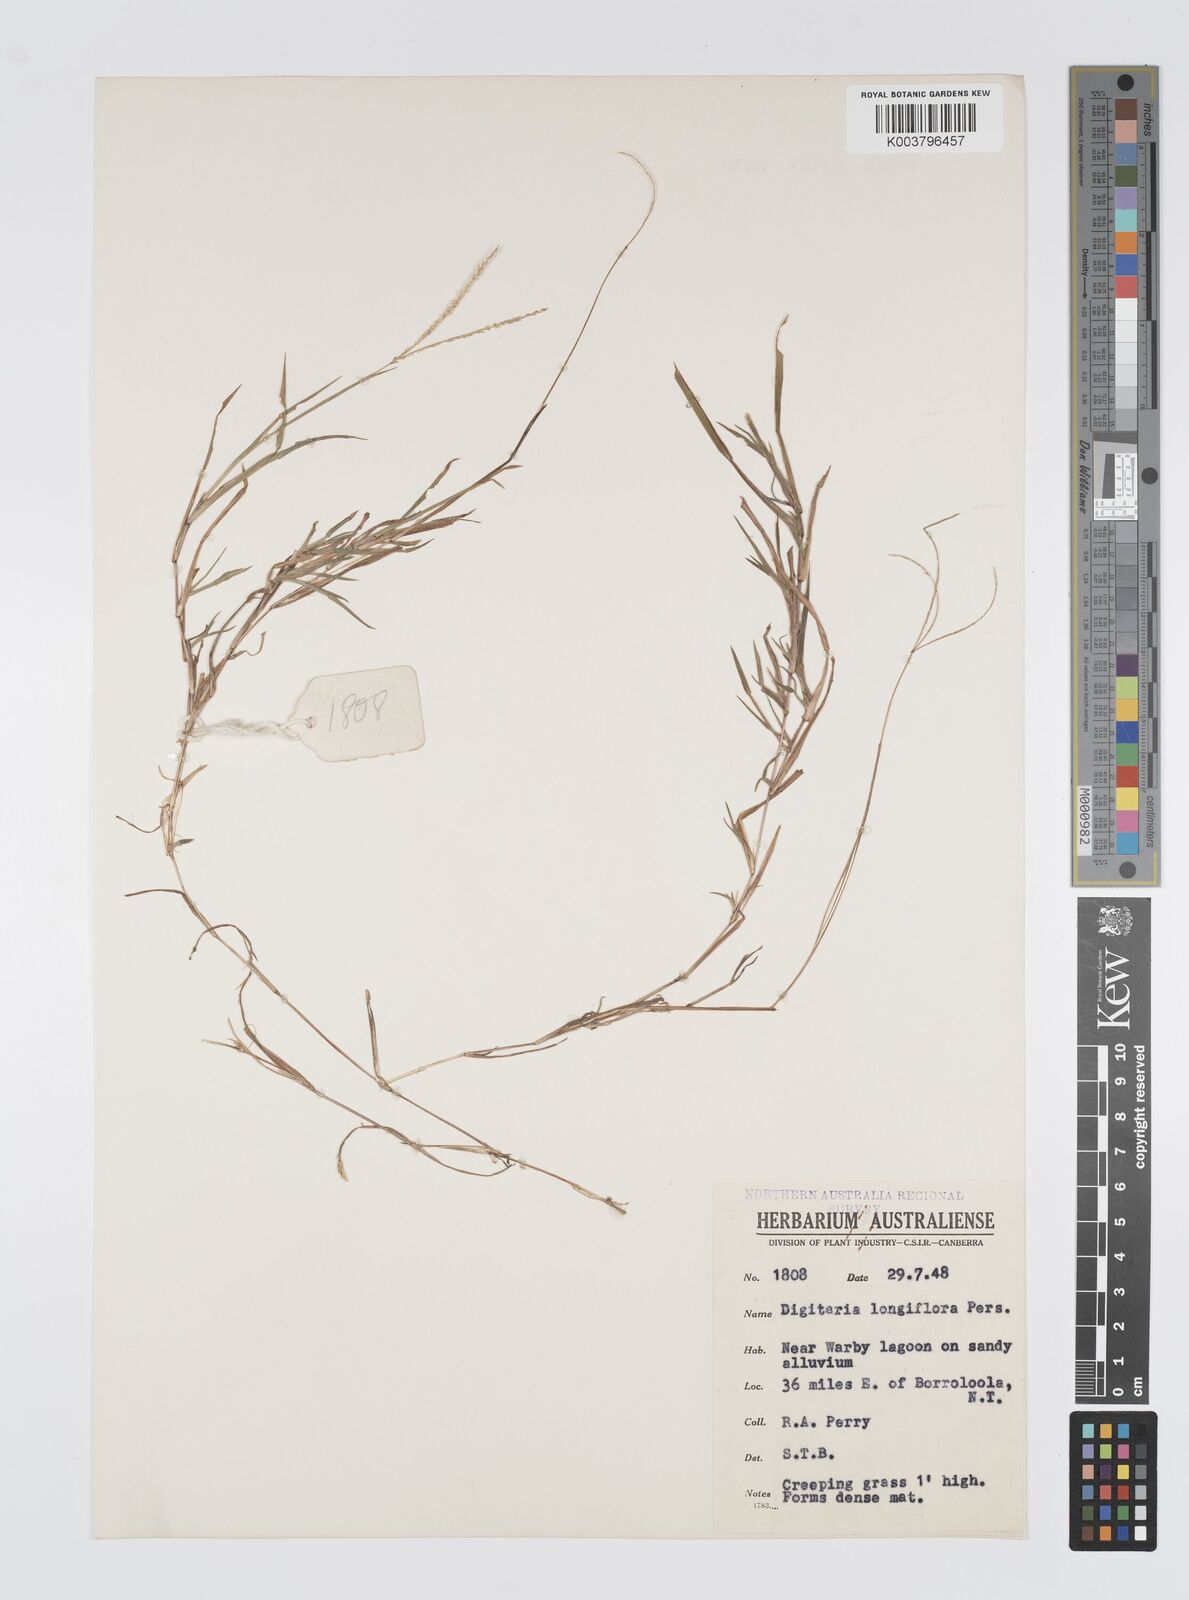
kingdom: Plantae
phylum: Tracheophyta
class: Liliopsida
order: Poales
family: Poaceae
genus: Digitaria
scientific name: Digitaria heterantha
